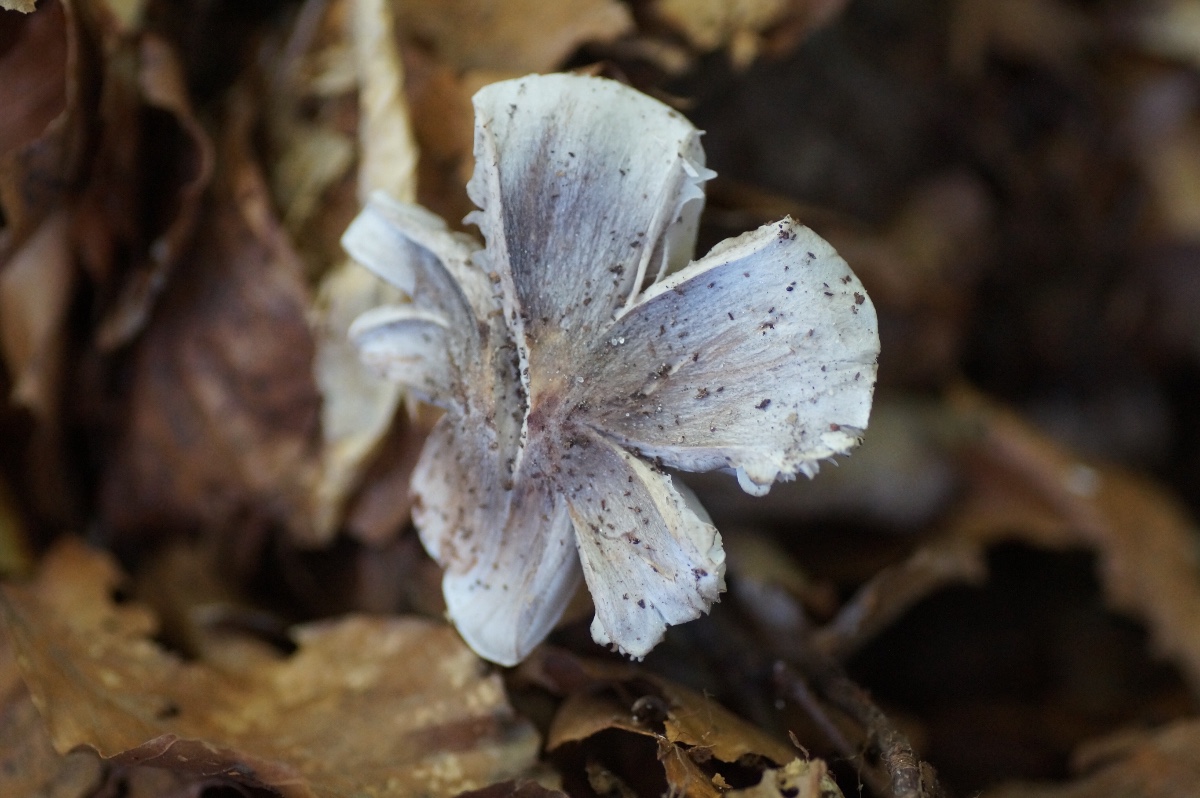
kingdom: Fungi
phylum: Basidiomycota
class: Agaricomycetes
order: Agaricales
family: Tricholomataceae
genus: Tricholoma
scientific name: Tricholoma sciodes
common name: stribet ridderhat
